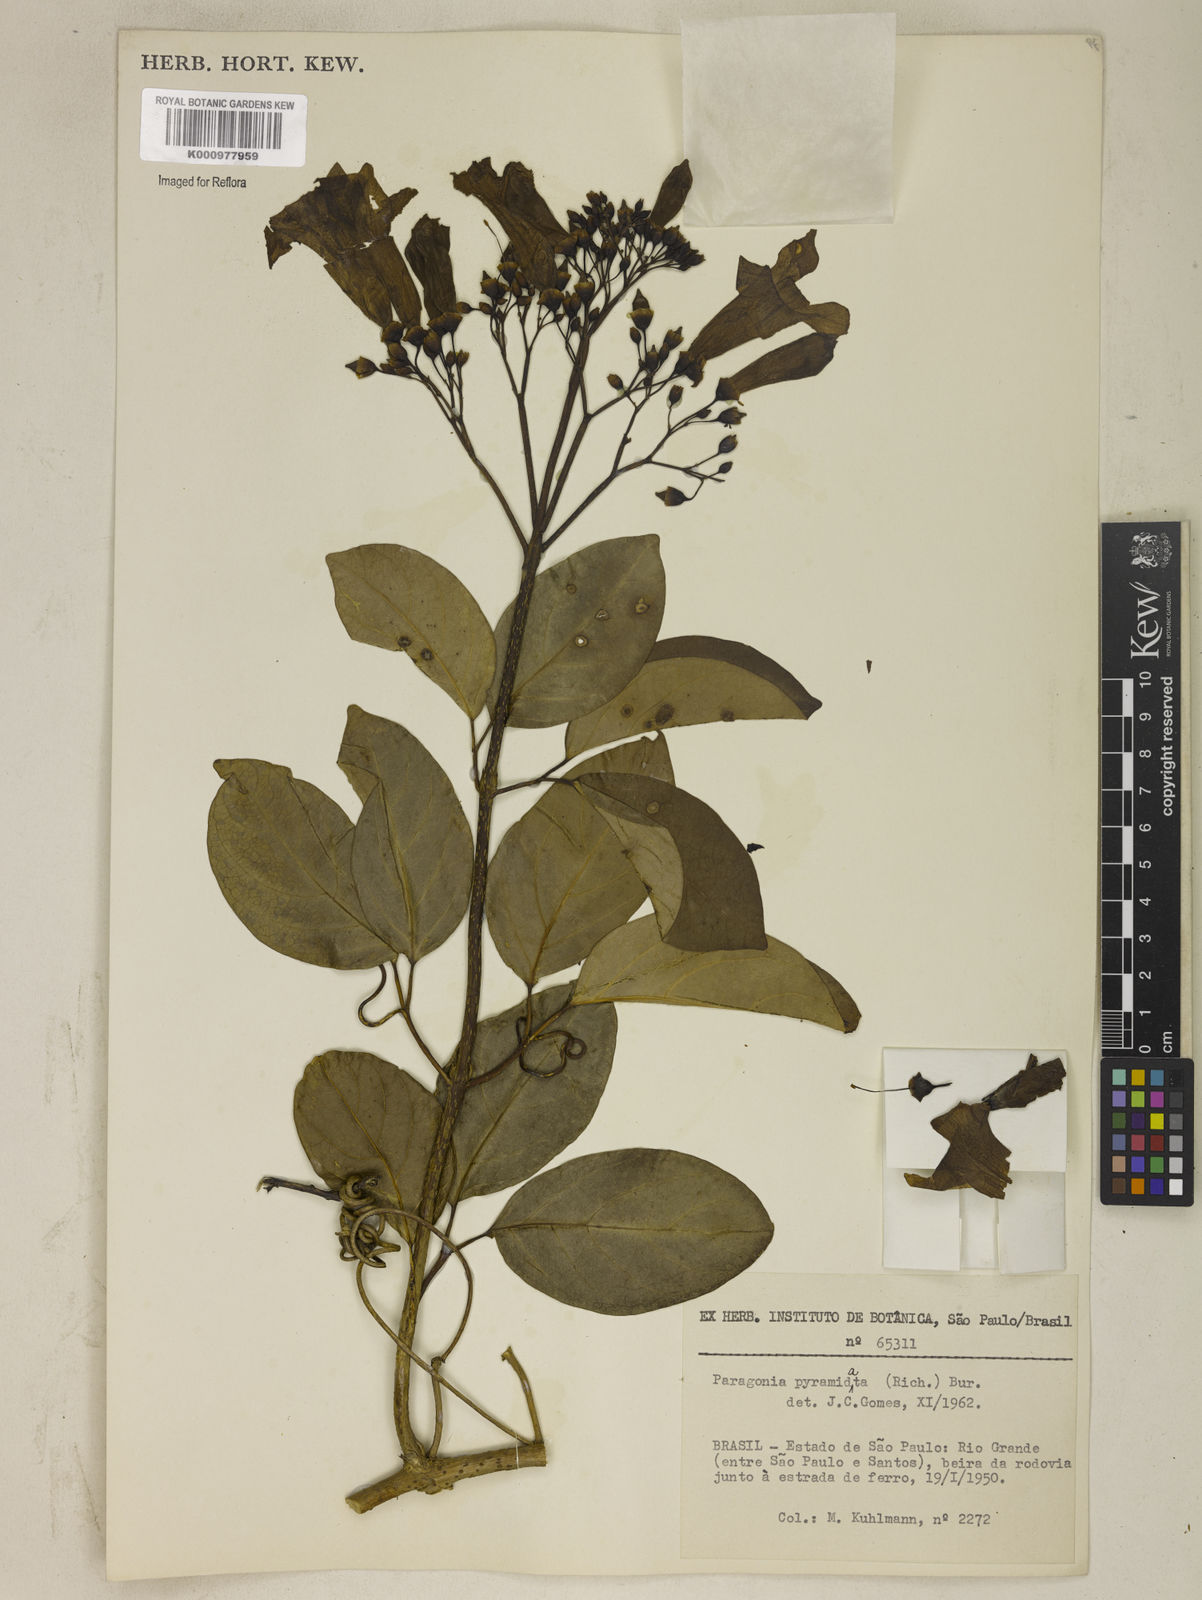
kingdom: Plantae
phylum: Tracheophyta
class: Magnoliopsida
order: Lamiales
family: Bignoniaceae
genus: Tanaecium
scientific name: Tanaecium pyramidatum
